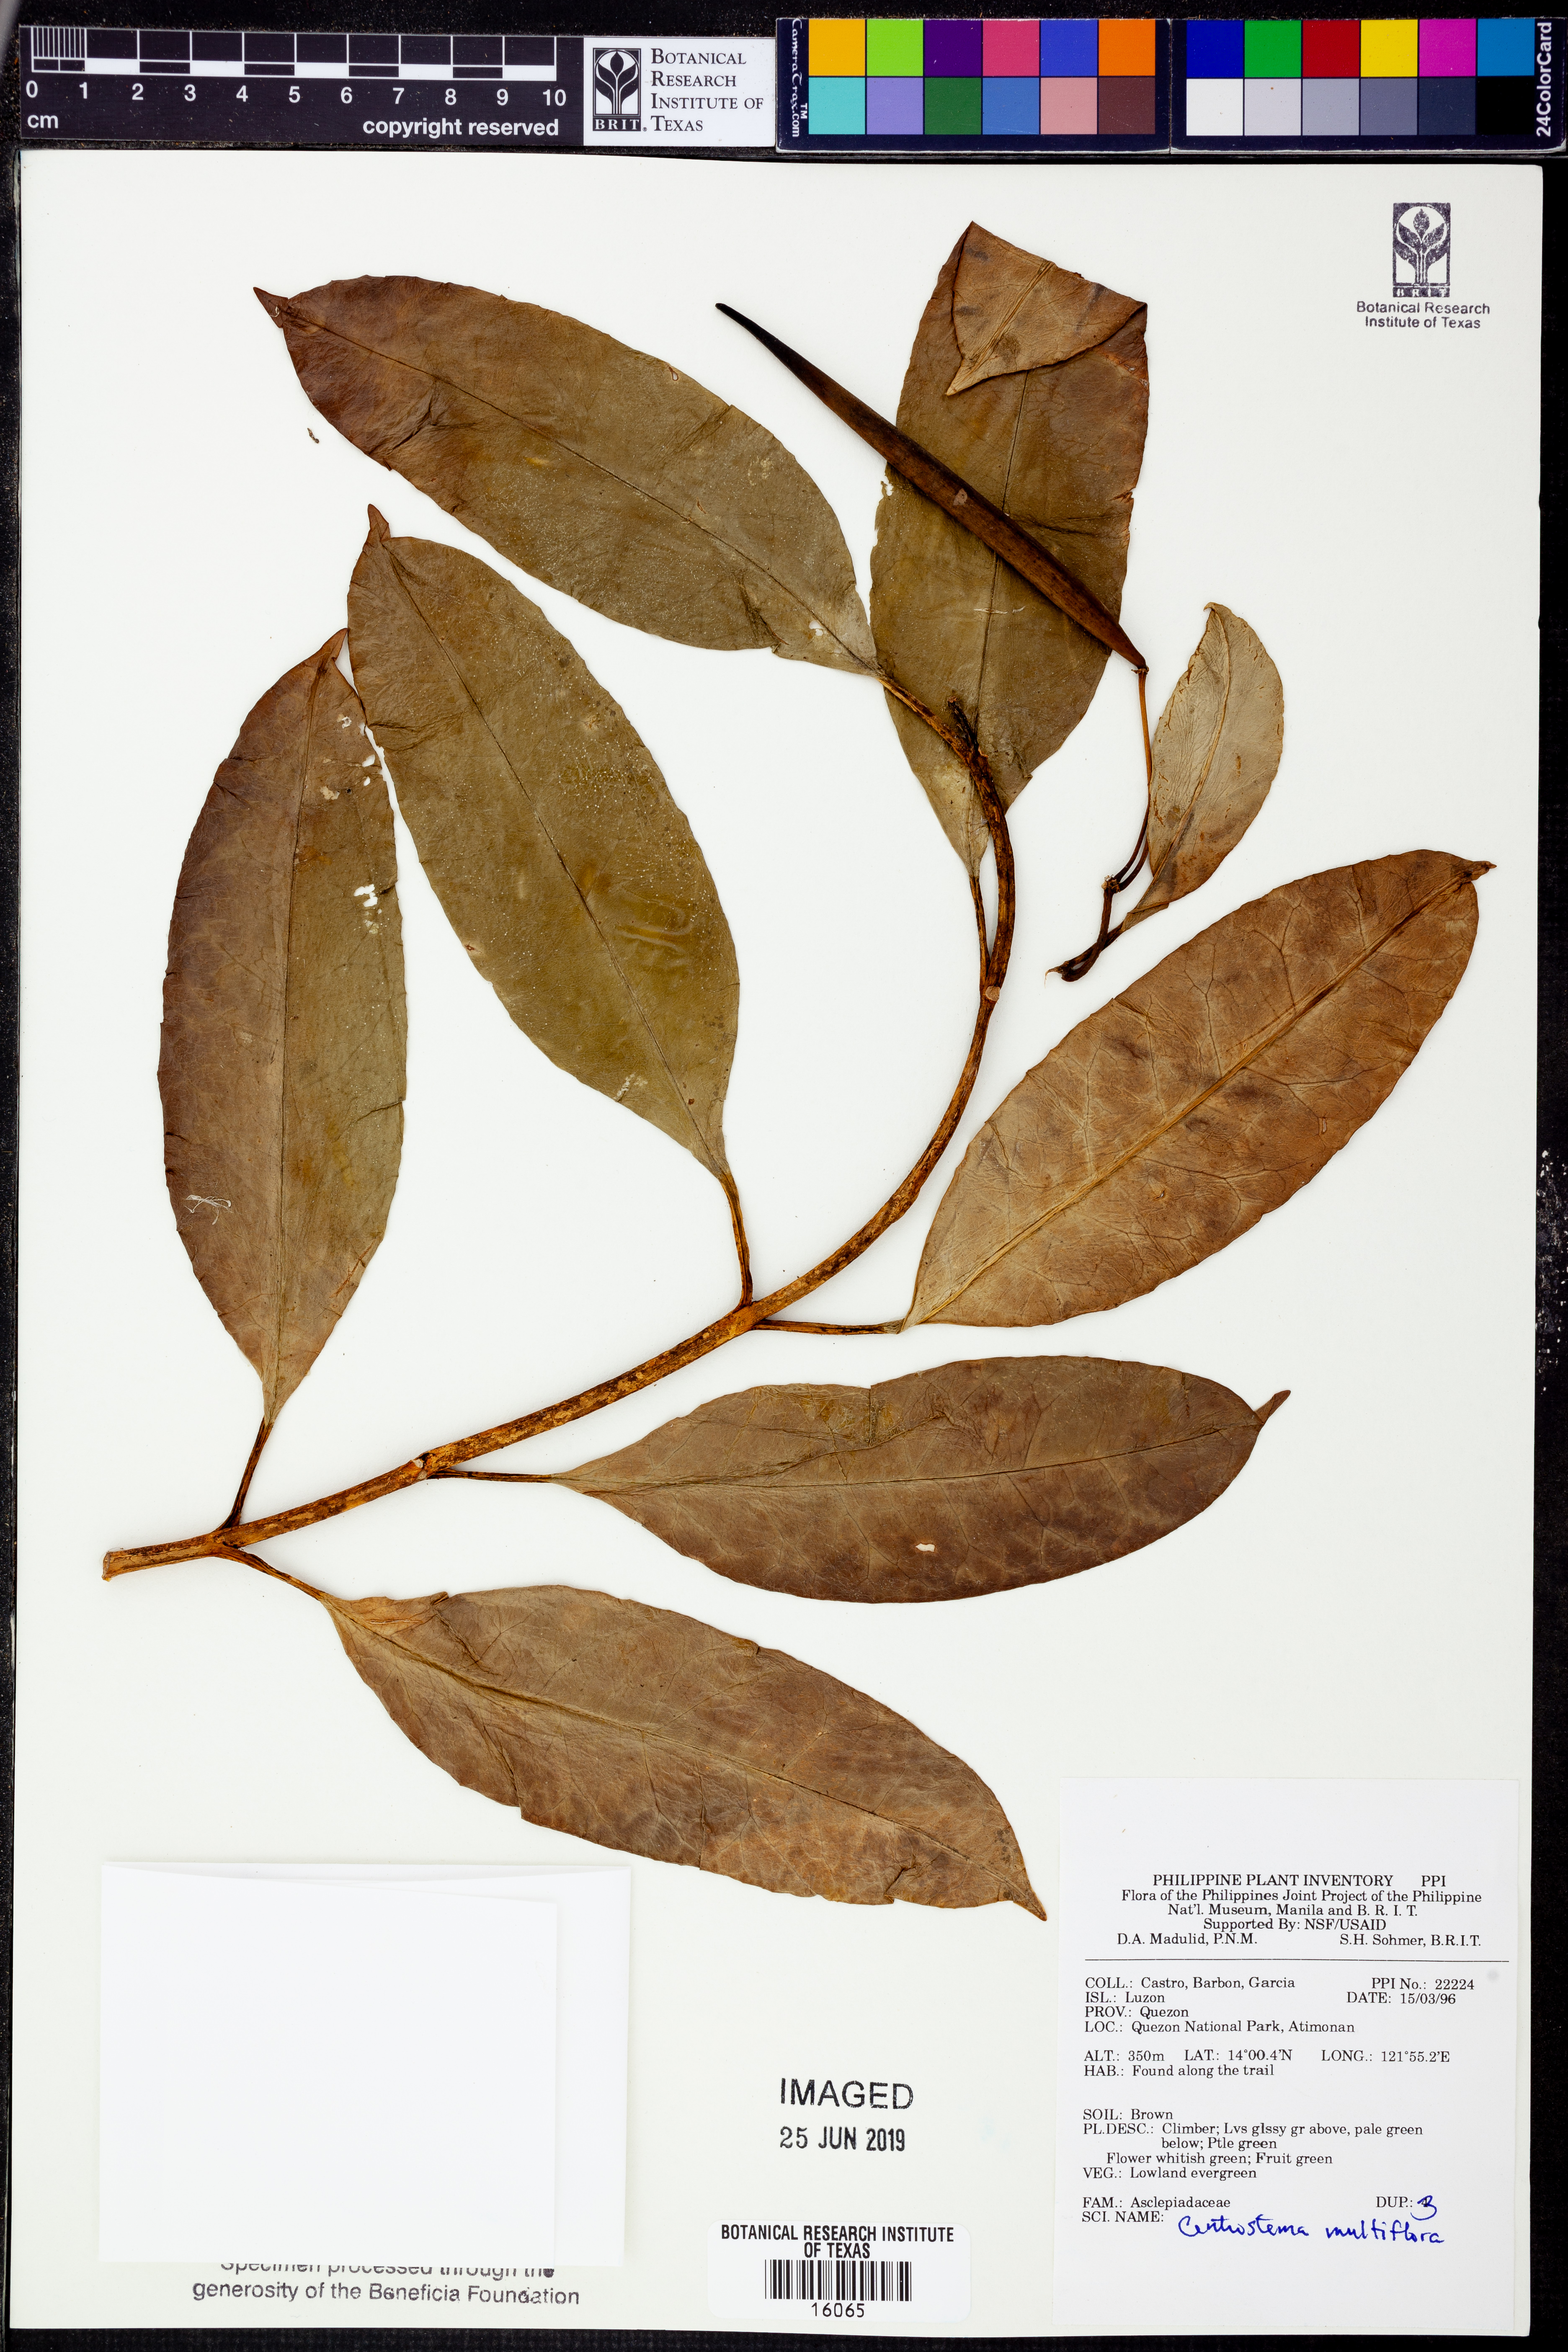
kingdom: Plantae
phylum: Tracheophyta
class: Magnoliopsida
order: Gentianales
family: Apocynaceae
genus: Hoya
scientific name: Hoya multiflora
